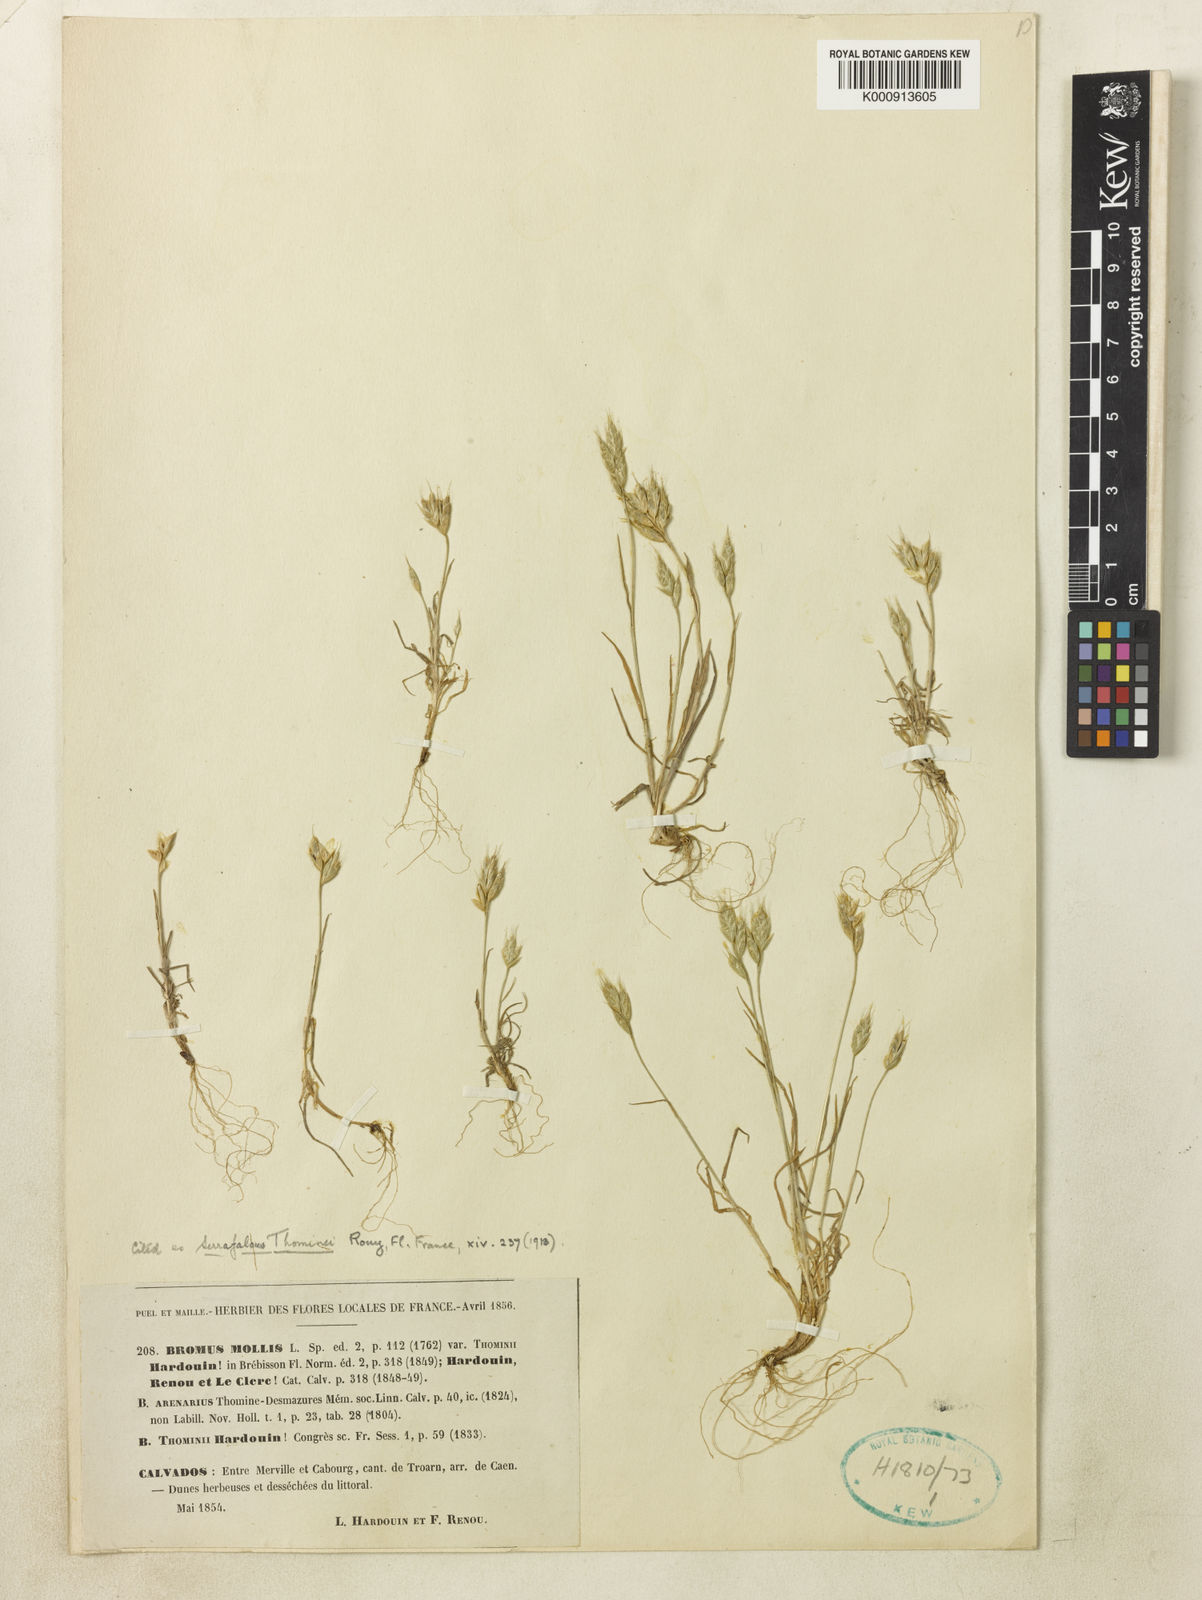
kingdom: Plantae
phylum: Tracheophyta
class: Liliopsida
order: Poales
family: Poaceae
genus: Bromus
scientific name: Bromus hordeaceus
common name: Soft brome
